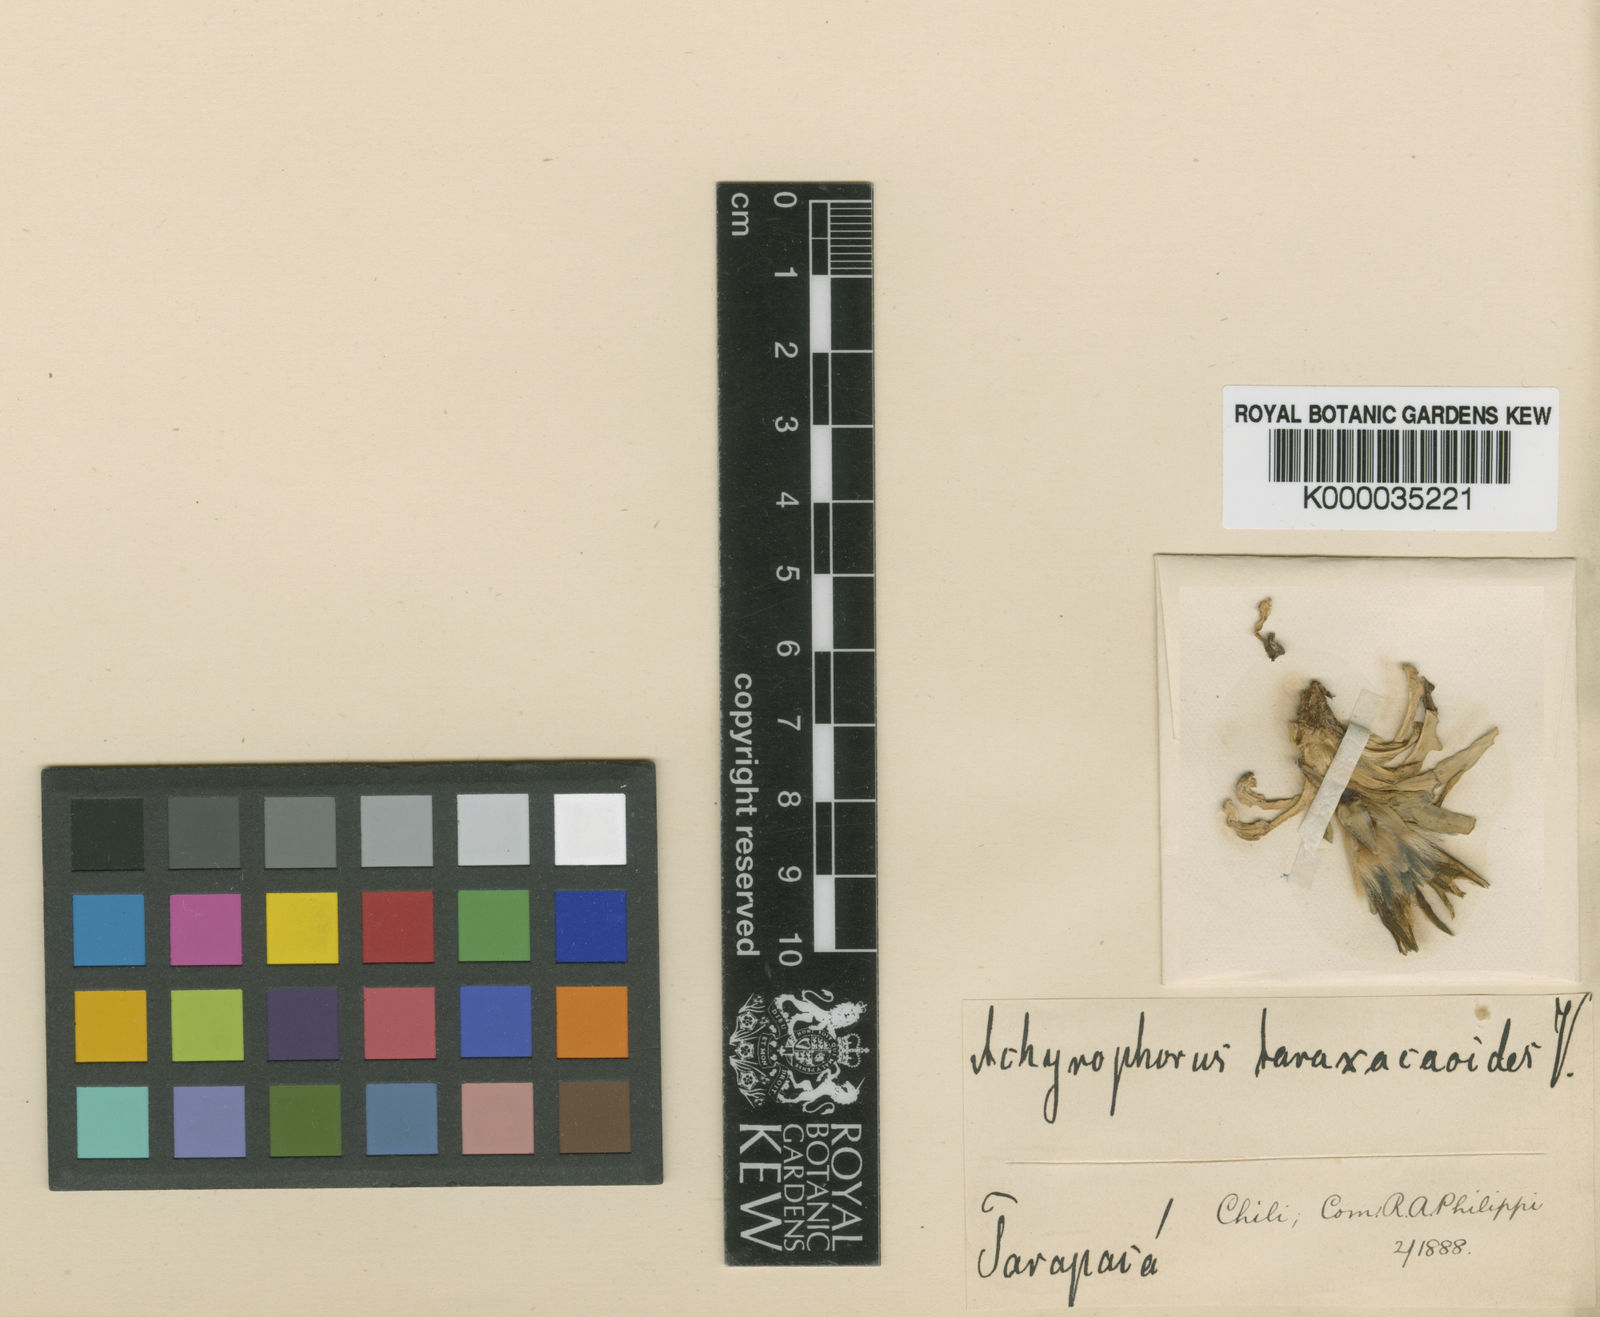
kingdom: Plantae
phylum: Tracheophyta
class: Magnoliopsida
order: Asterales
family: Asteraceae
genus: Hypochaeris
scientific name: Hypochaeris taraxacoides
